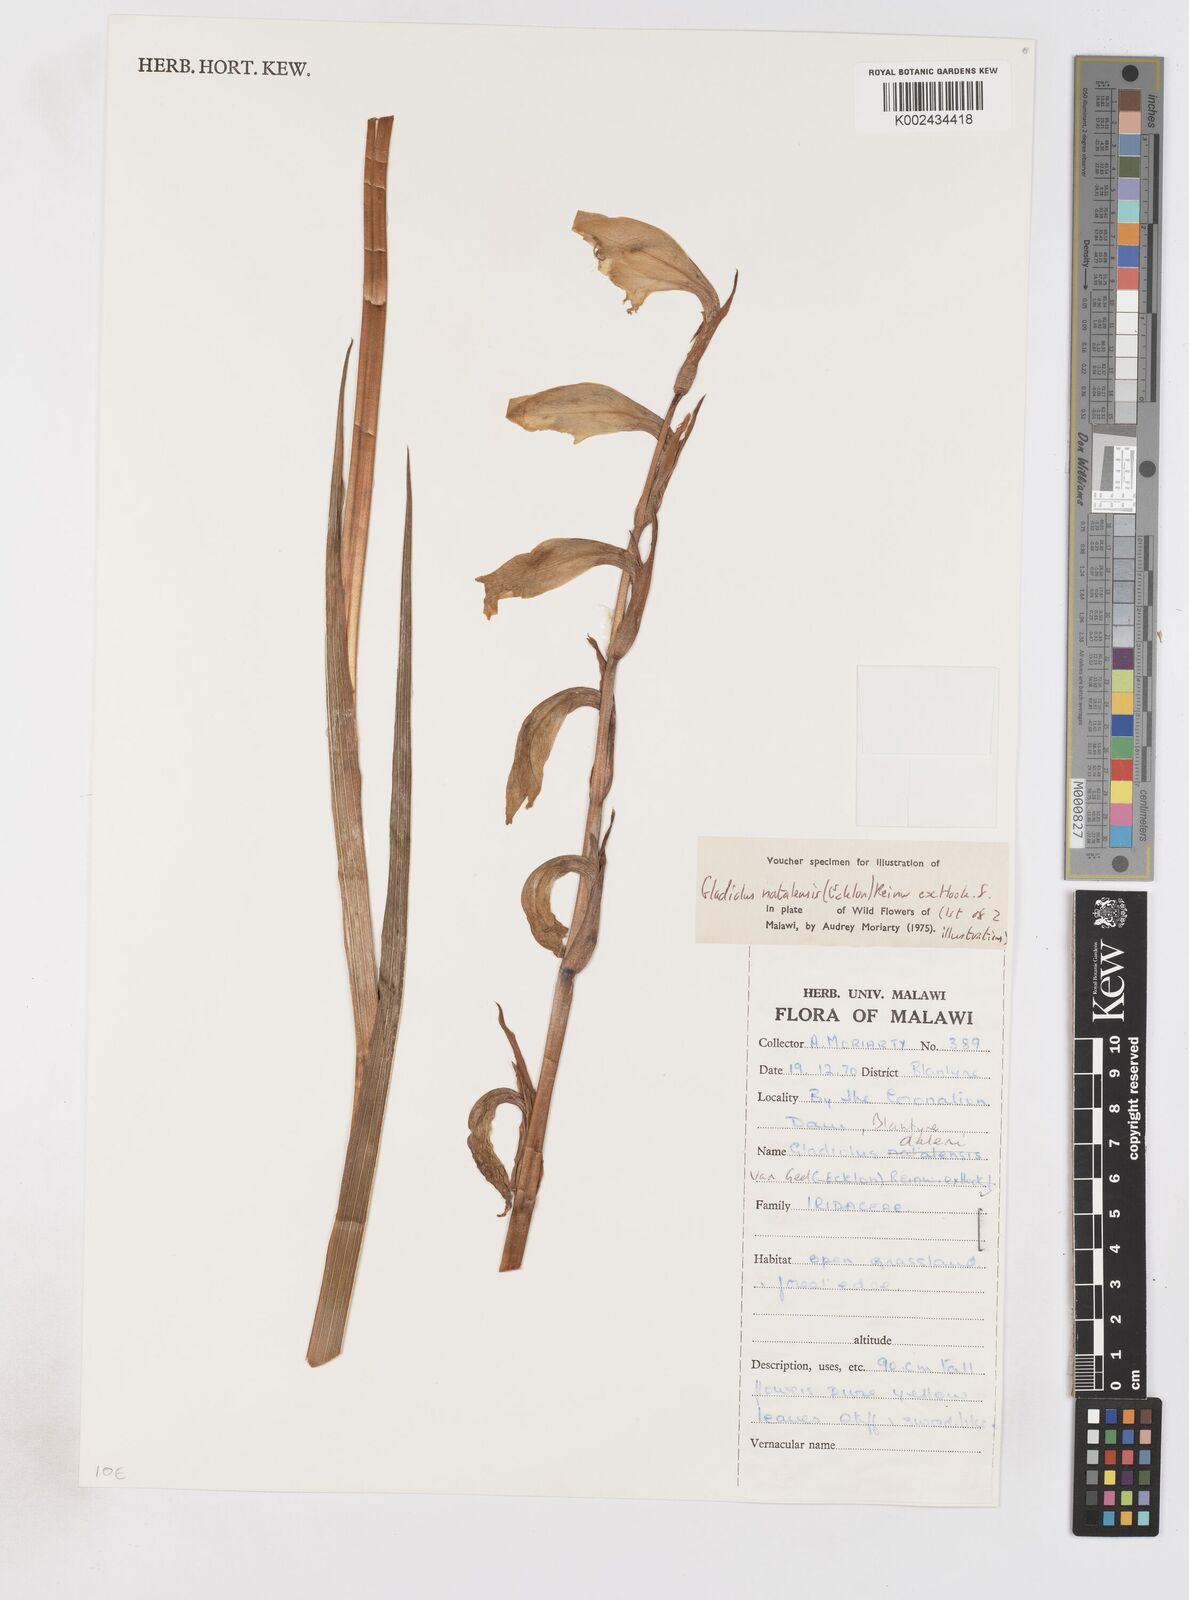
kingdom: Plantae
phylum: Tracheophyta
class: Liliopsida
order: Asparagales
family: Iridaceae
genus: Gladiolus
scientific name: Gladiolus dalenii
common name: Cornflag
